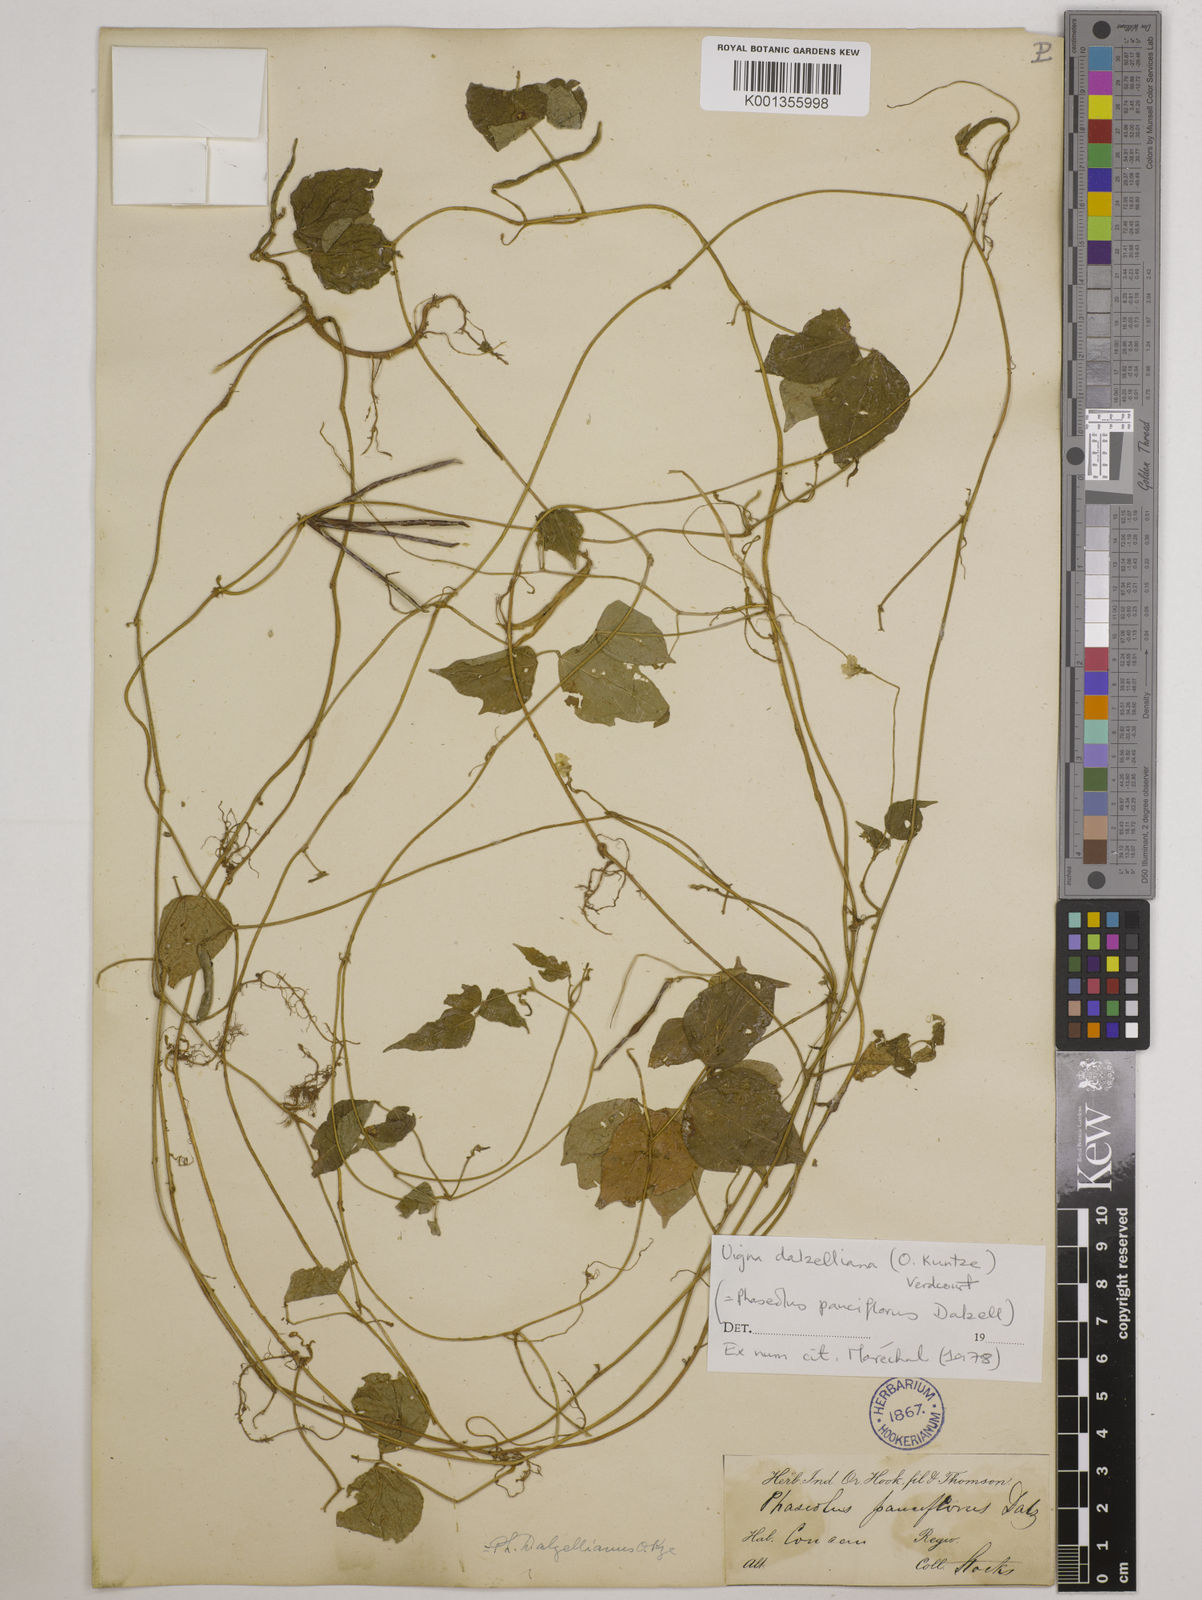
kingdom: Plantae
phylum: Tracheophyta
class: Magnoliopsida
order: Fabales
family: Fabaceae
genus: Vigna
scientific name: Vigna dalzelliana
